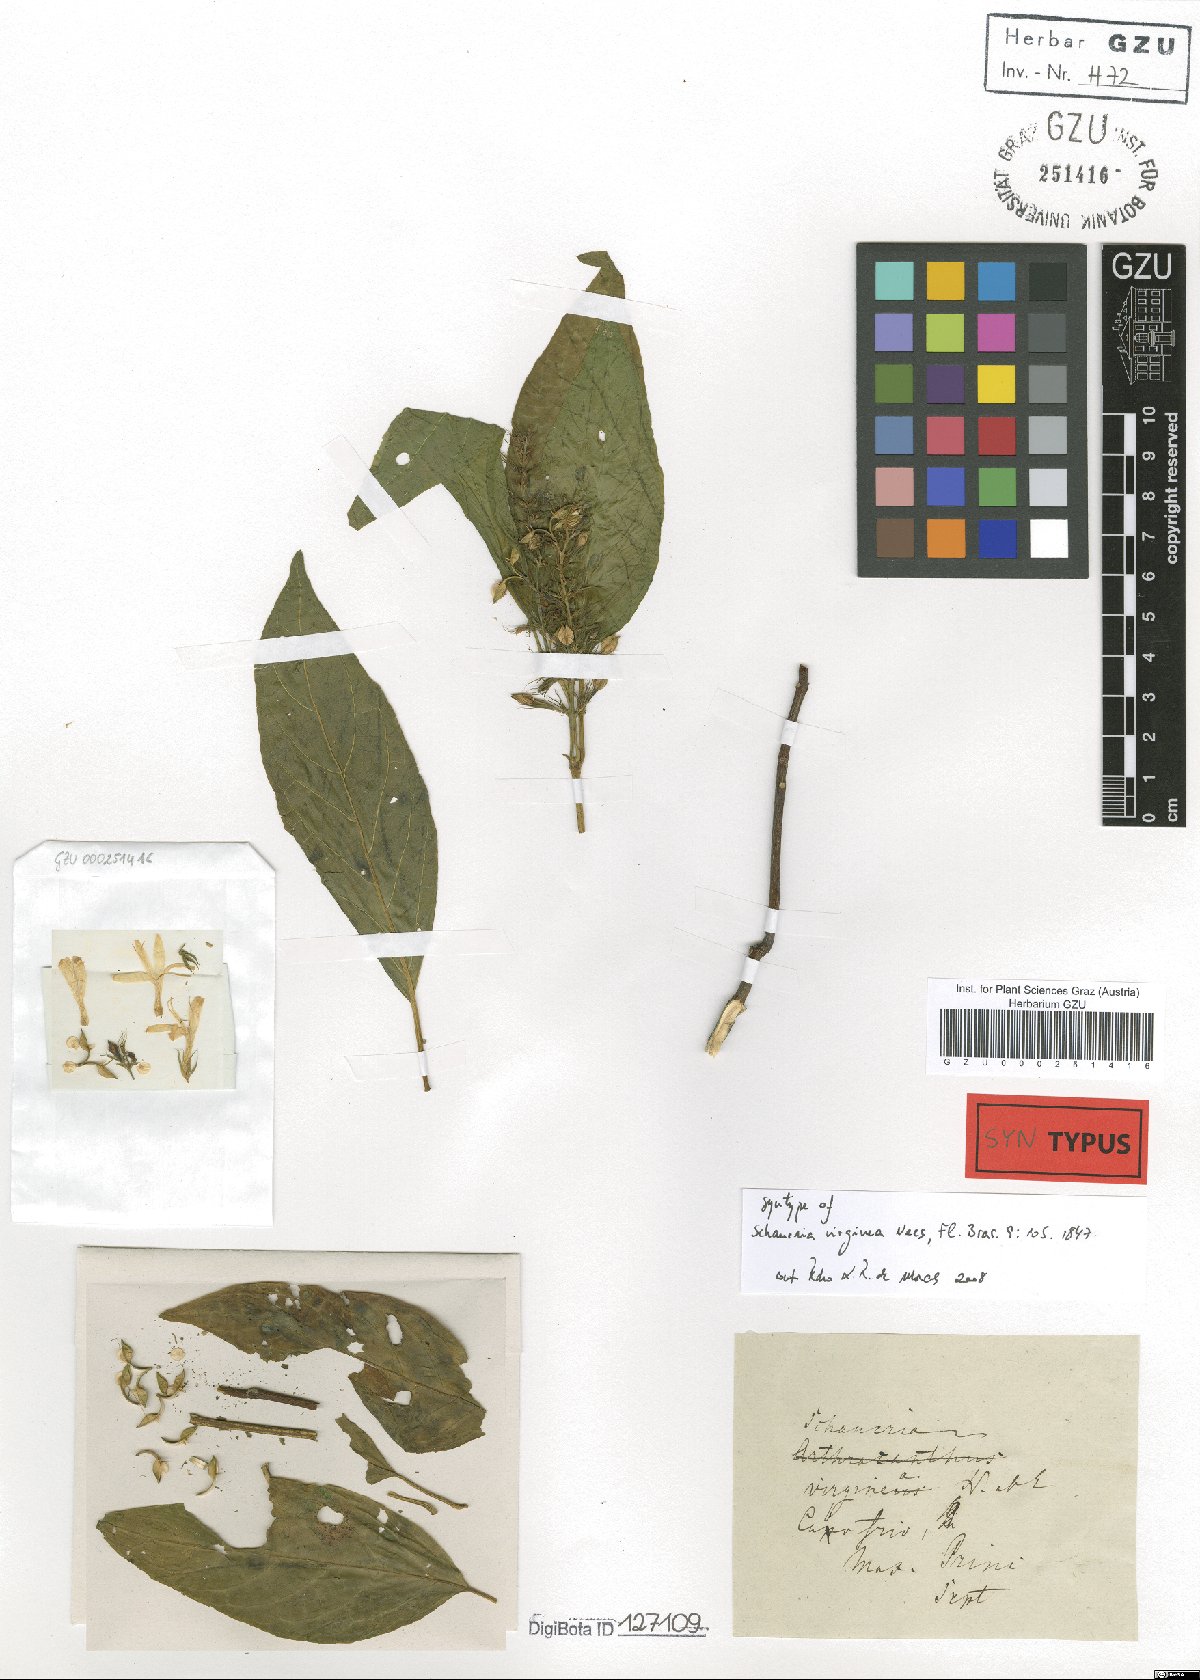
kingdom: Plantae
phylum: Tracheophyta
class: Magnoliopsida
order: Lamiales
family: Acanthaceae
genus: Schaueria
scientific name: Schaueria litoralis
